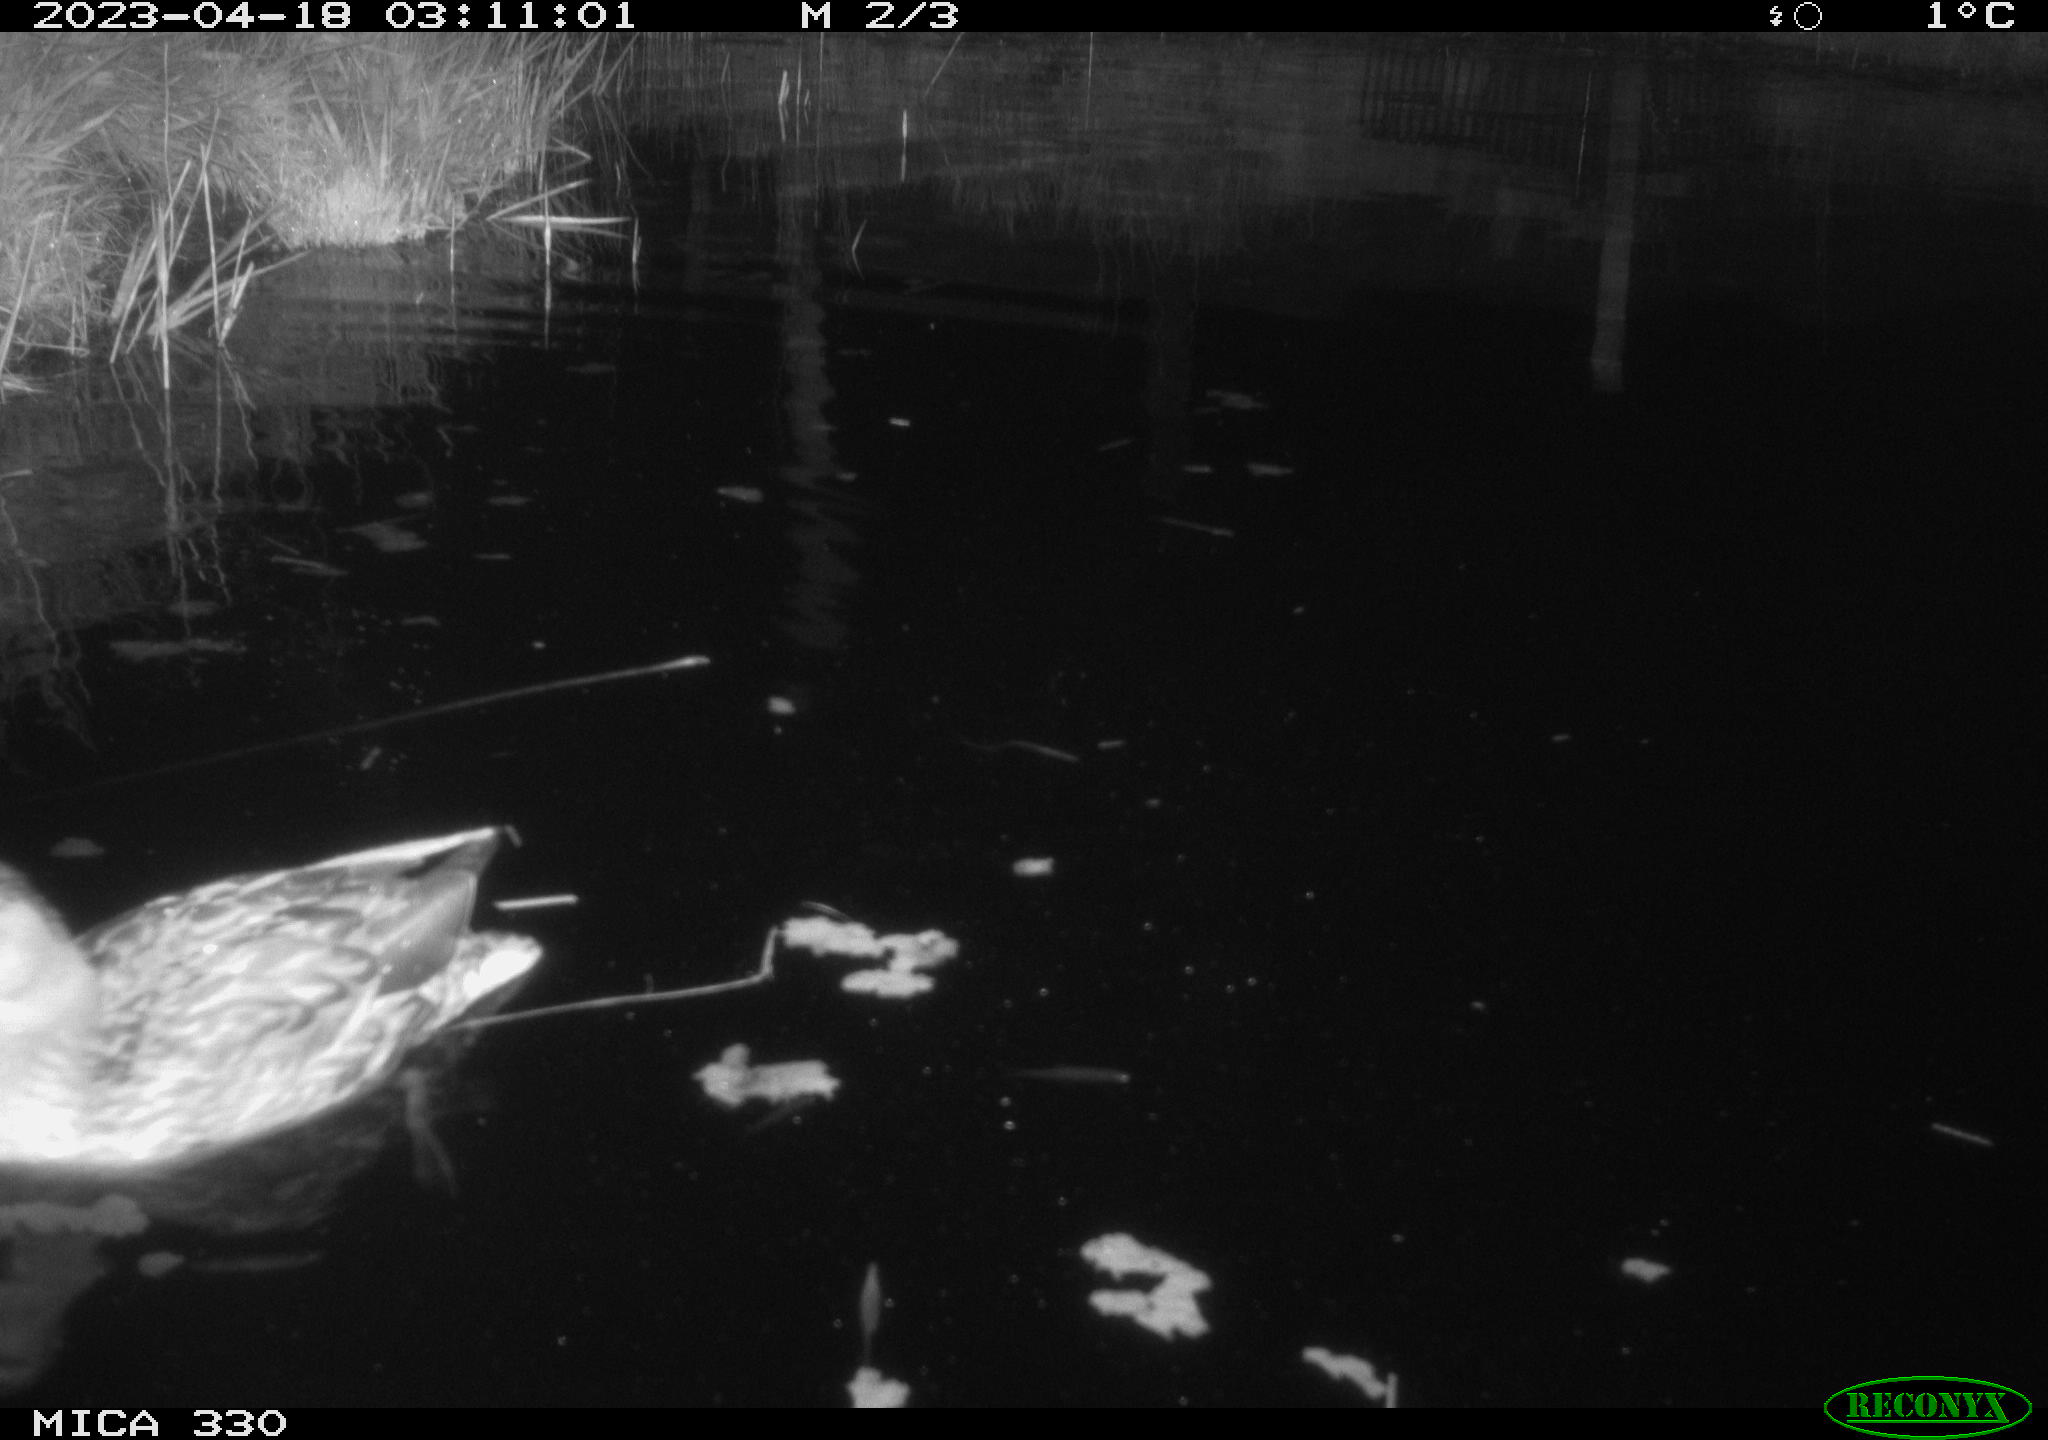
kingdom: Animalia
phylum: Chordata
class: Aves
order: Anseriformes
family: Anatidae
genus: Anas
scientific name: Anas
